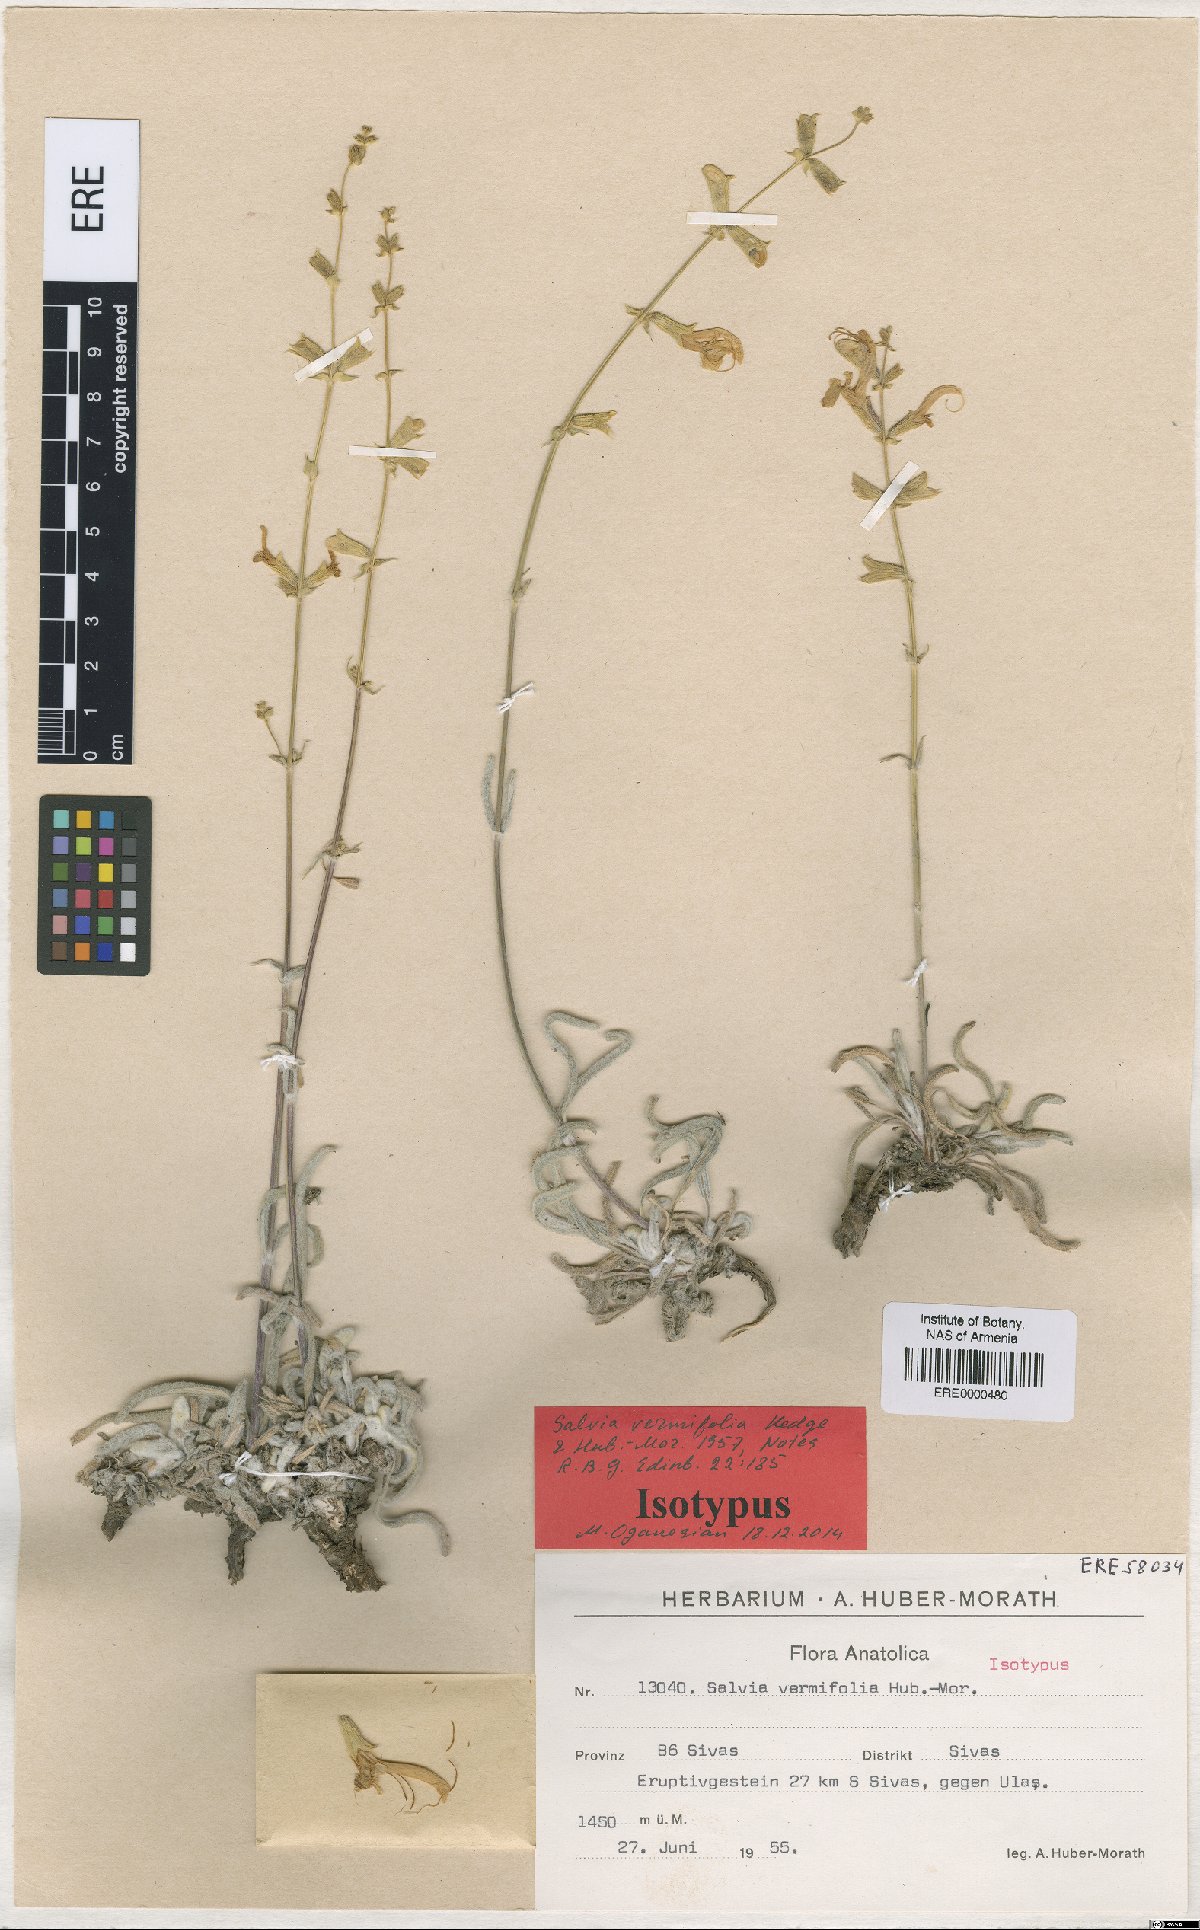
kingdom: Plantae
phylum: Tracheophyta
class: Magnoliopsida
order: Lamiales
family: Lamiaceae
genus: Salvia
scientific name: Salvia vermifolia
